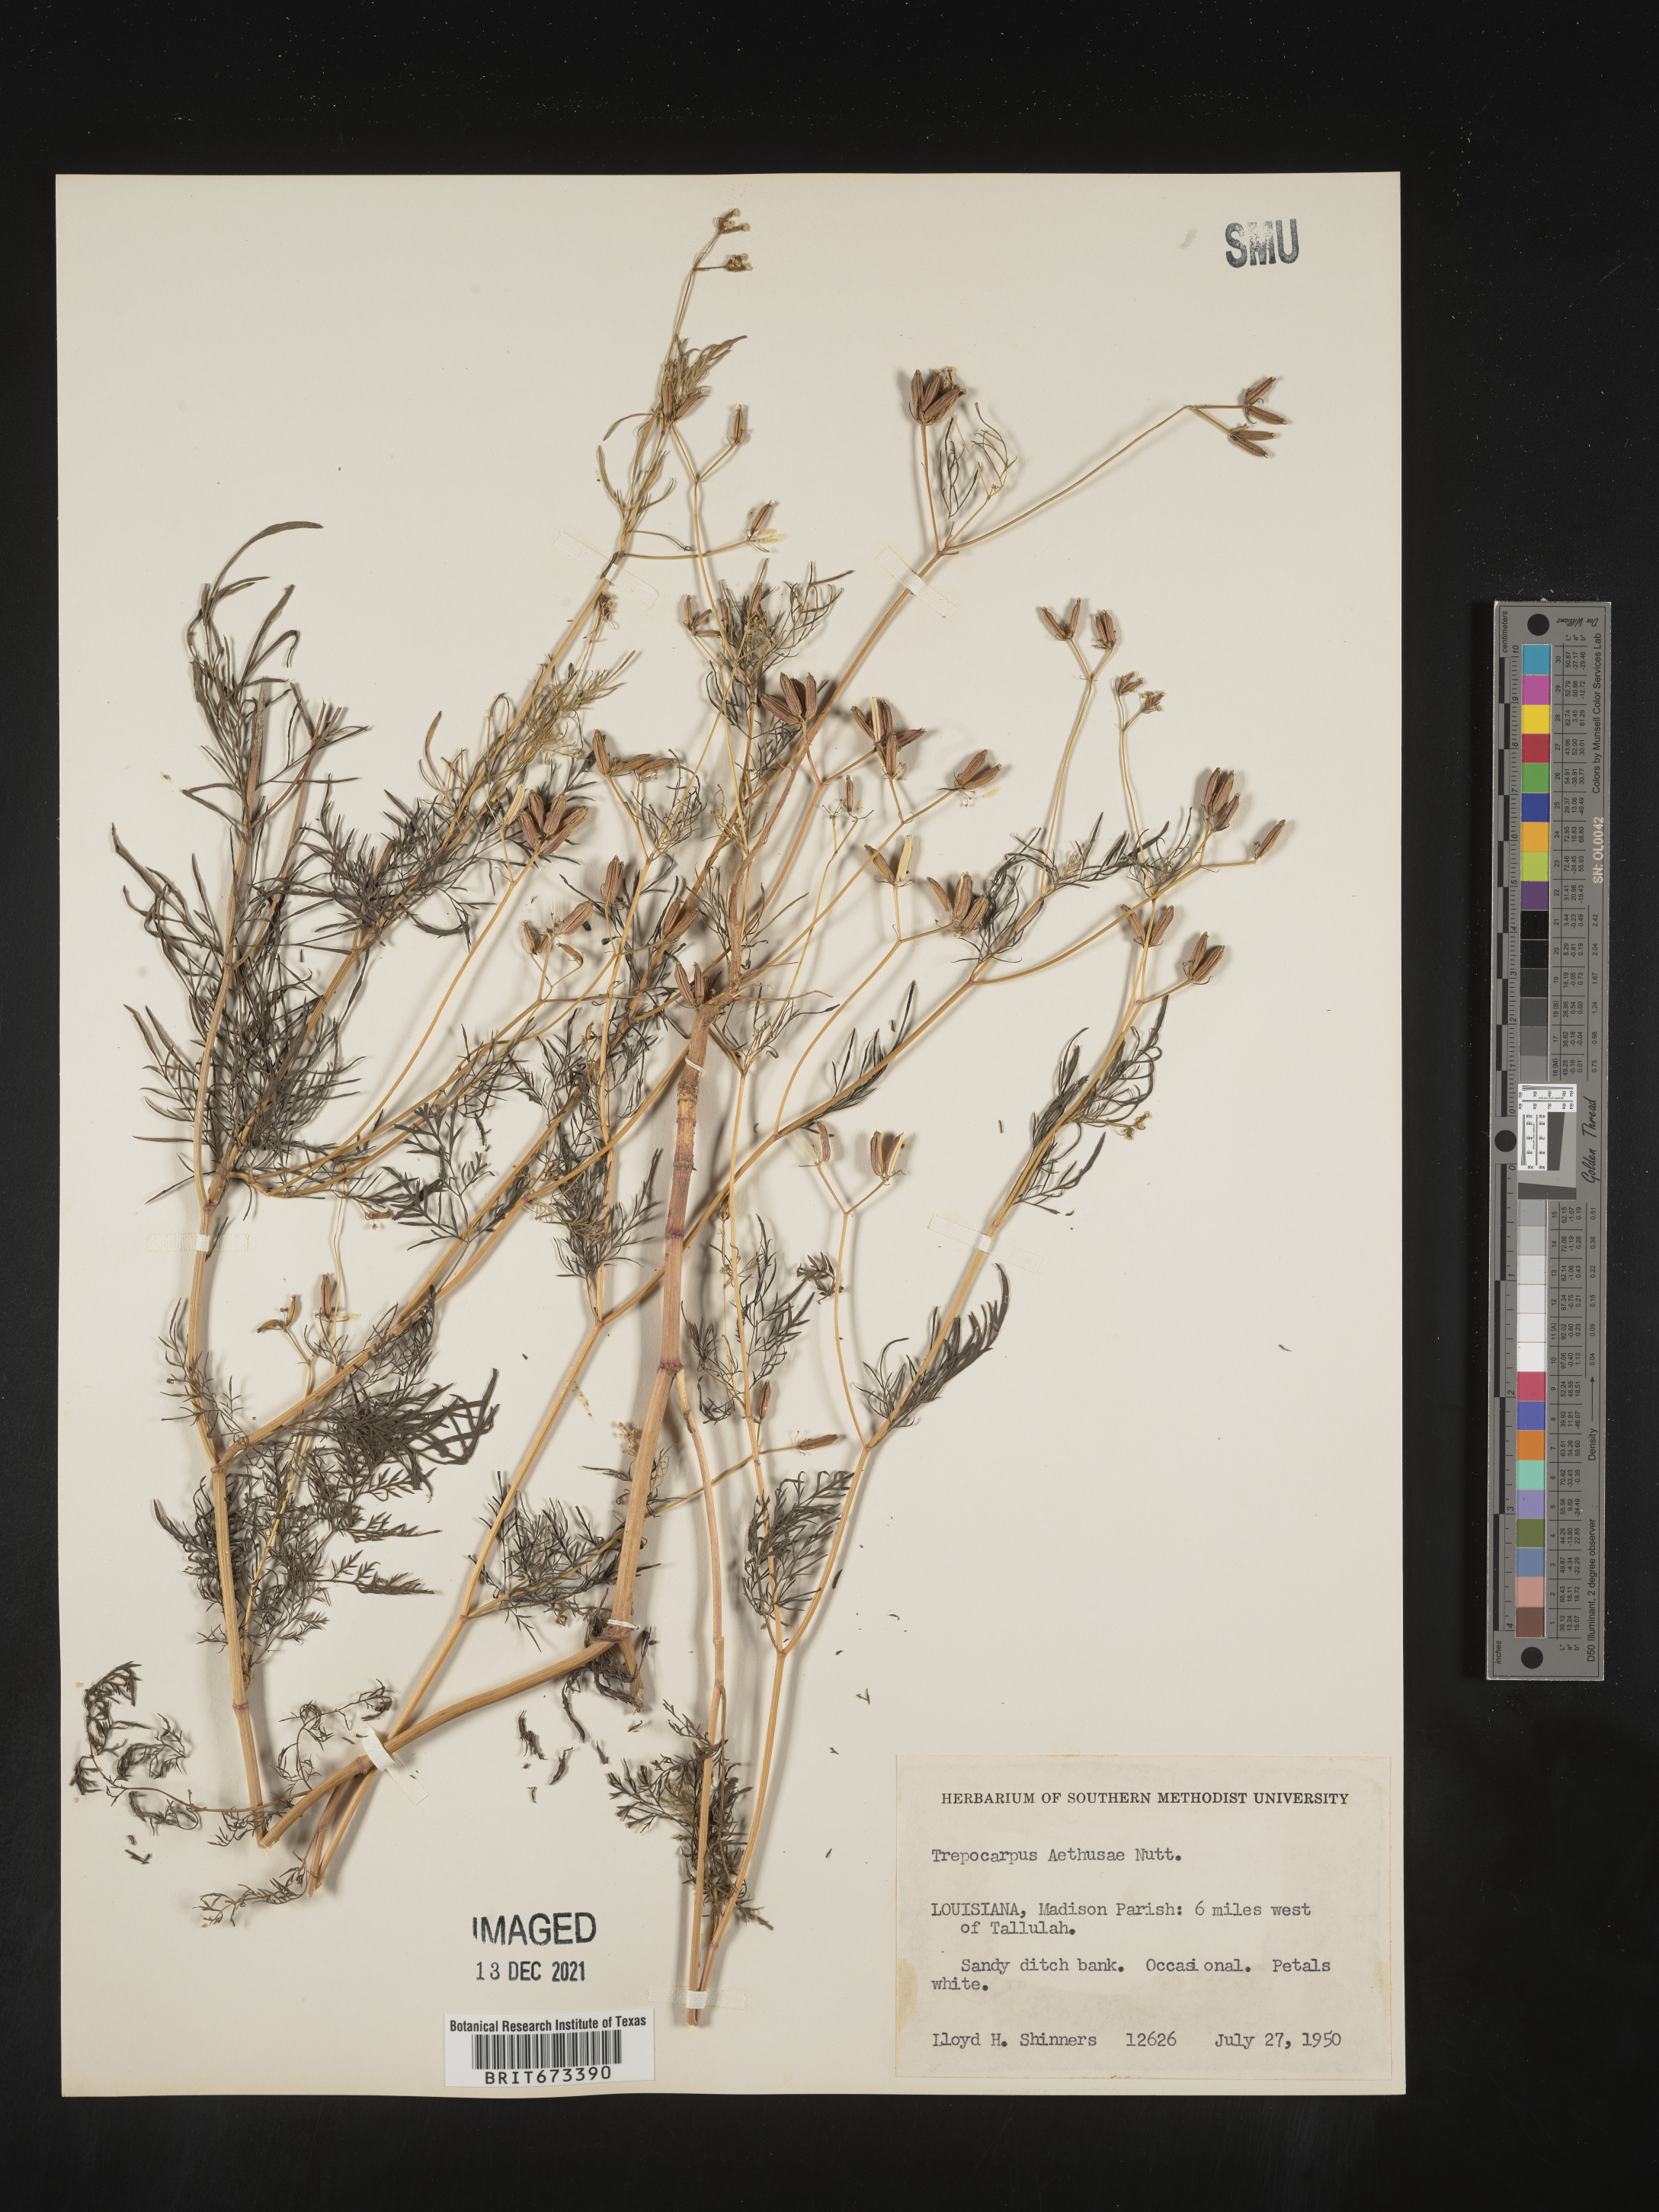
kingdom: Plantae
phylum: Tracheophyta
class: Magnoliopsida
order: Apiales
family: Apiaceae
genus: Trepocarpus
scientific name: Trepocarpus aethusae
